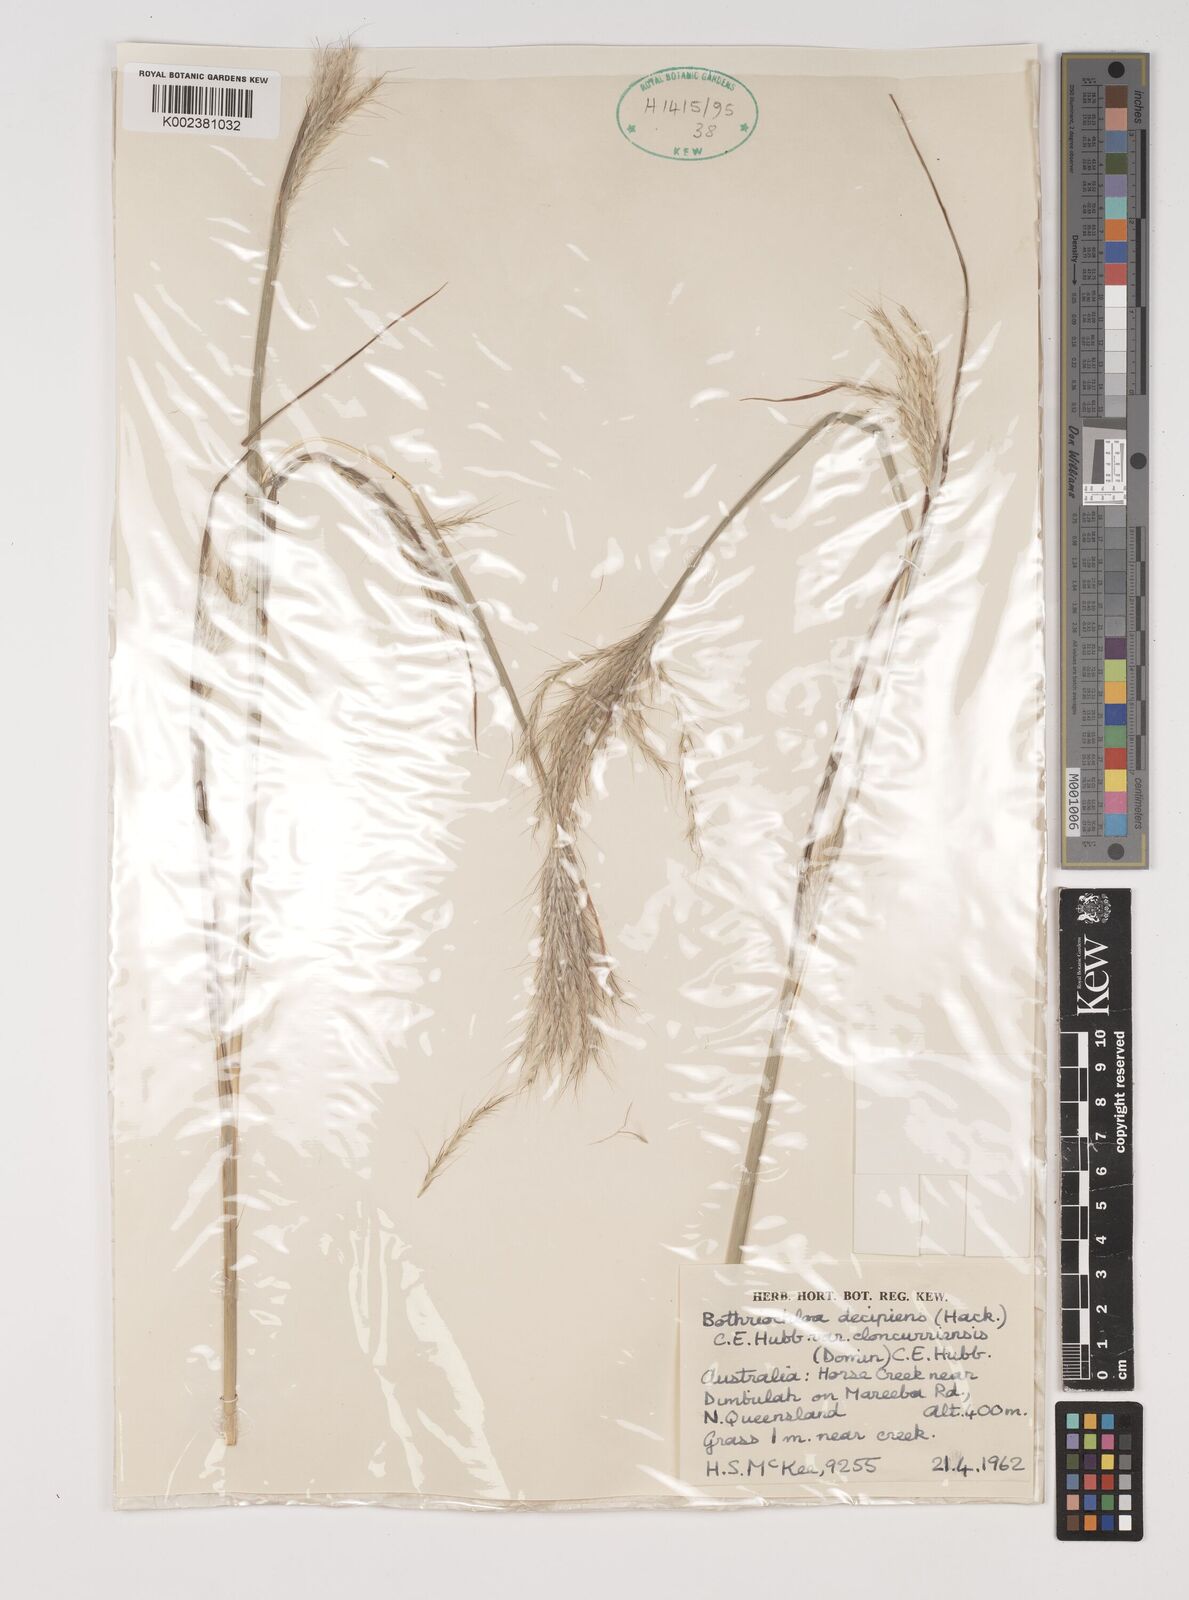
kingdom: Plantae
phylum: Tracheophyta
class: Liliopsida
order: Poales
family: Poaceae
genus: Bothriochloa
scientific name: Bothriochloa decipiens
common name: Pitted-bluegrass
